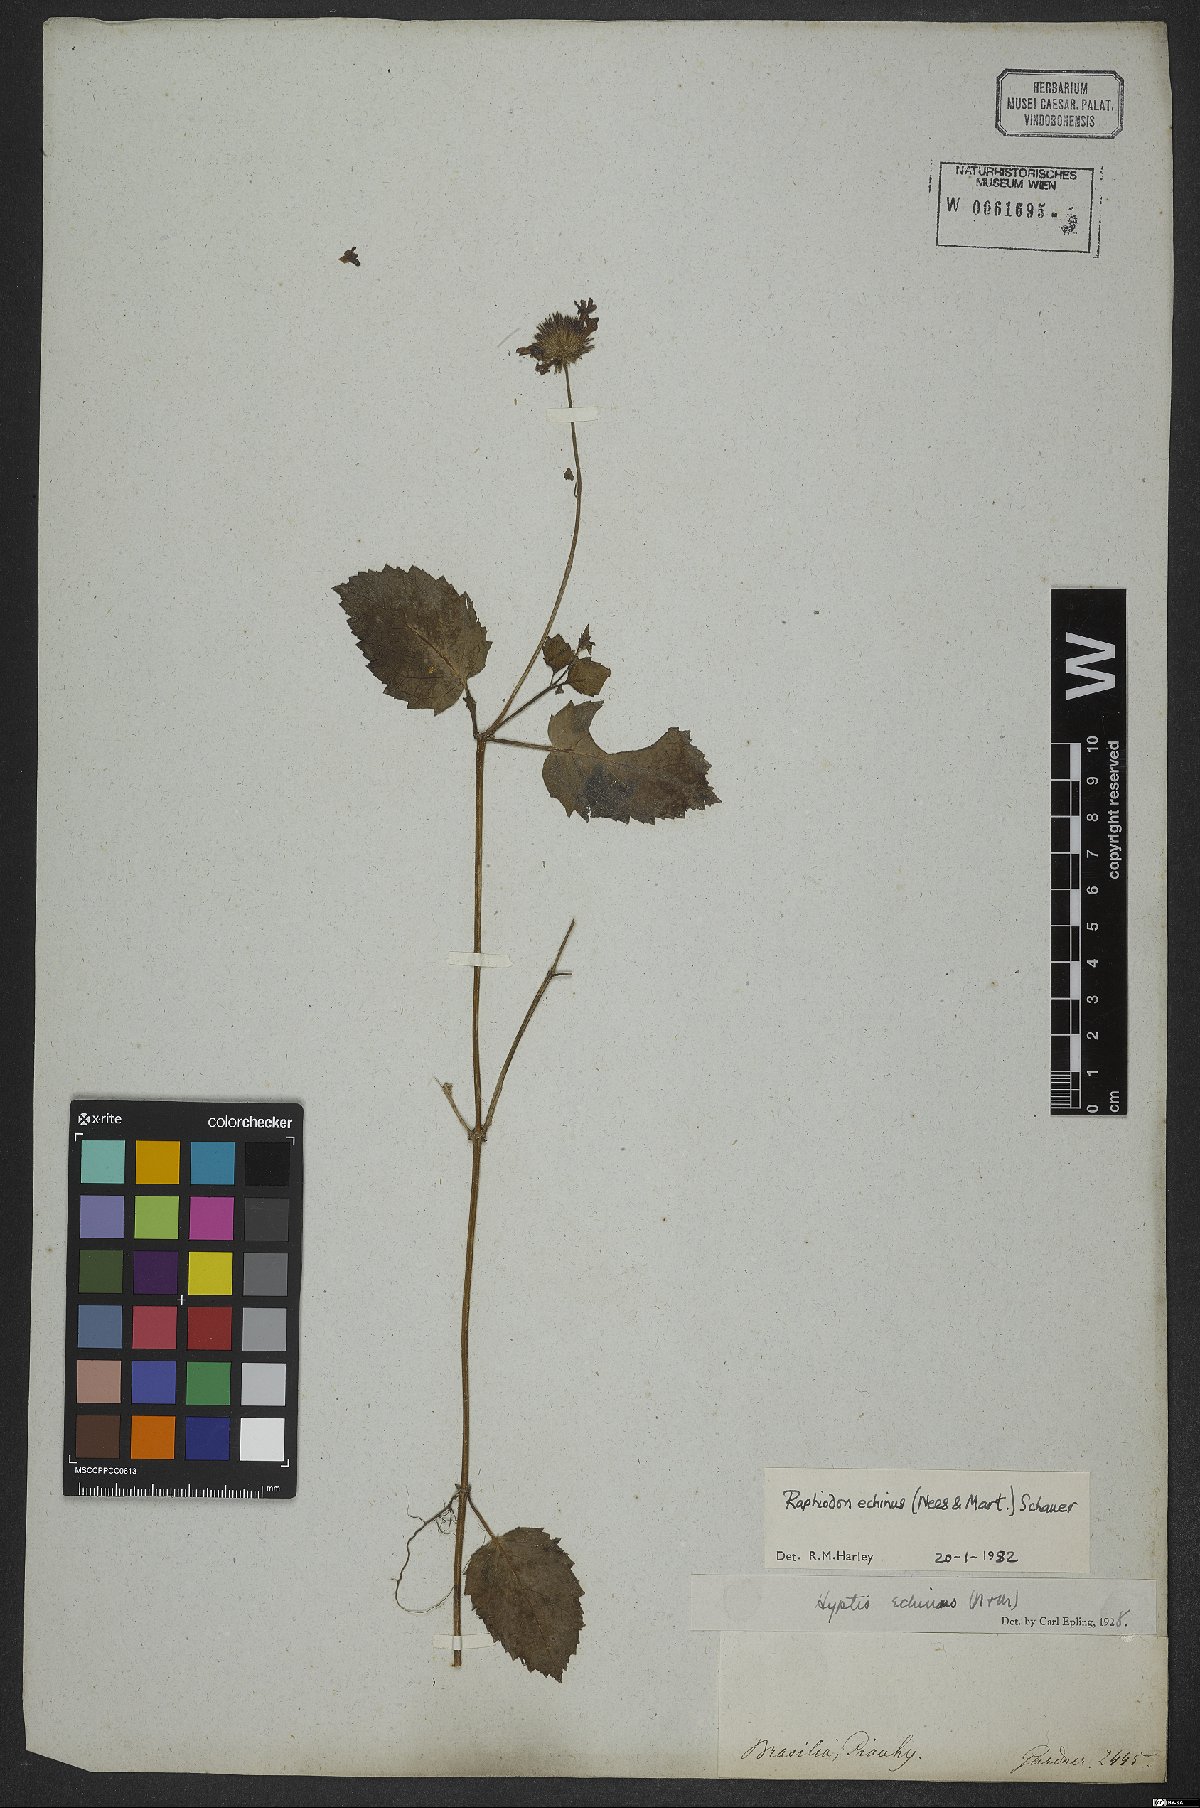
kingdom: Plantae
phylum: Tracheophyta
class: Magnoliopsida
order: Lamiales
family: Lamiaceae
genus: Rhaphiodon
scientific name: Rhaphiodon echinus
